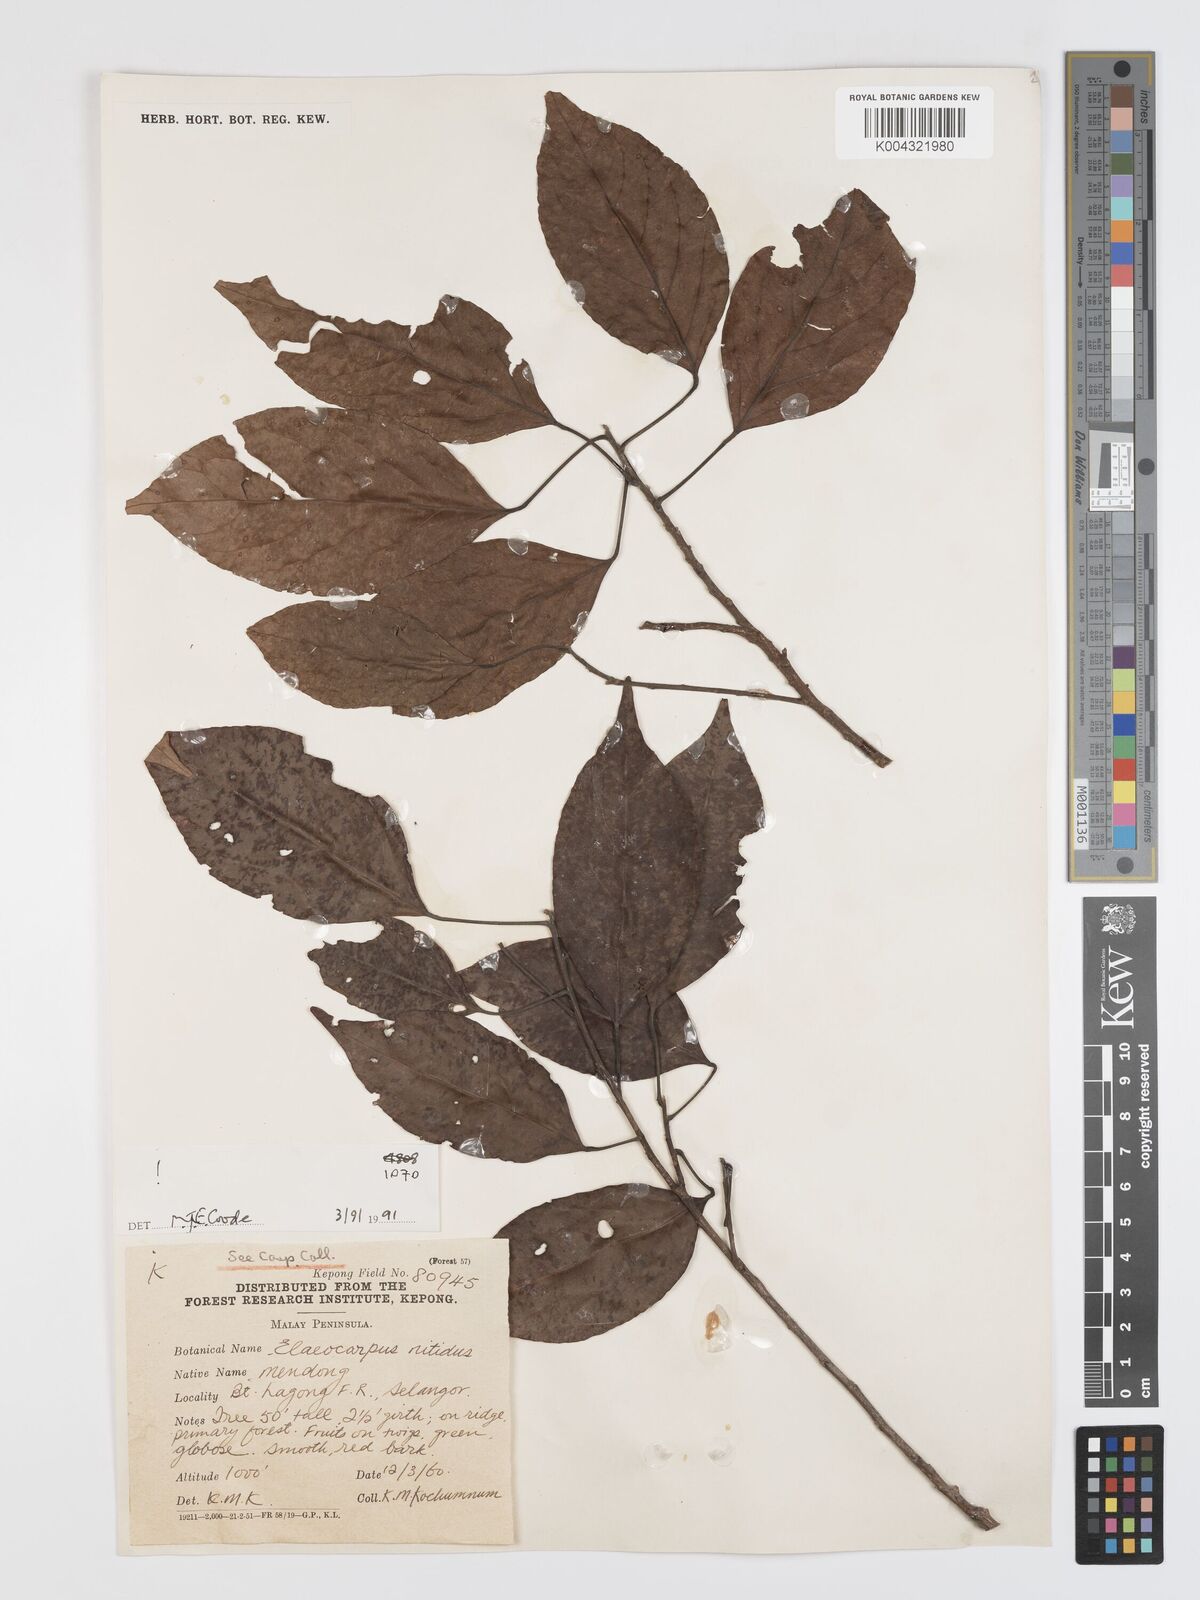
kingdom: Plantae
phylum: Tracheophyta
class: Magnoliopsida
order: Oxalidales
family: Elaeocarpaceae
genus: Elaeocarpus
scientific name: Elaeocarpus nitidus
